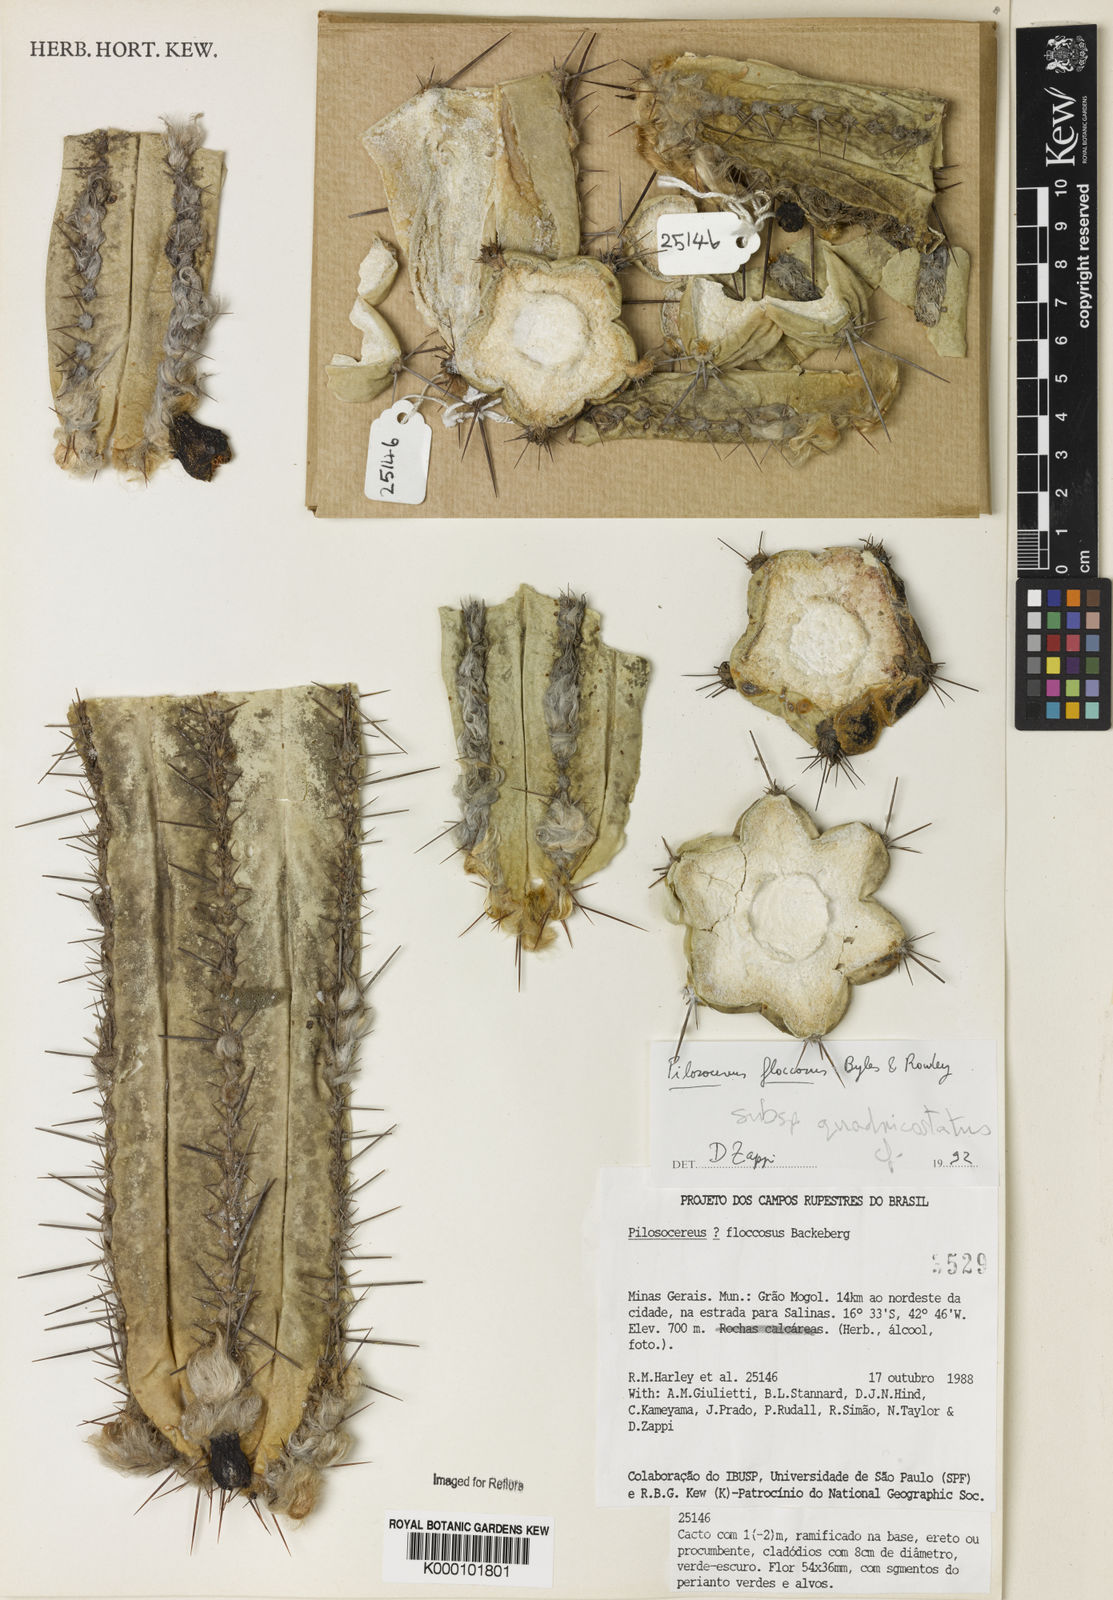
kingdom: Plantae
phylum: Tracheophyta
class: Magnoliopsida
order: Caryophyllales
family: Cactaceae
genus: Pilosocereus
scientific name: Pilosocereus floccosus
